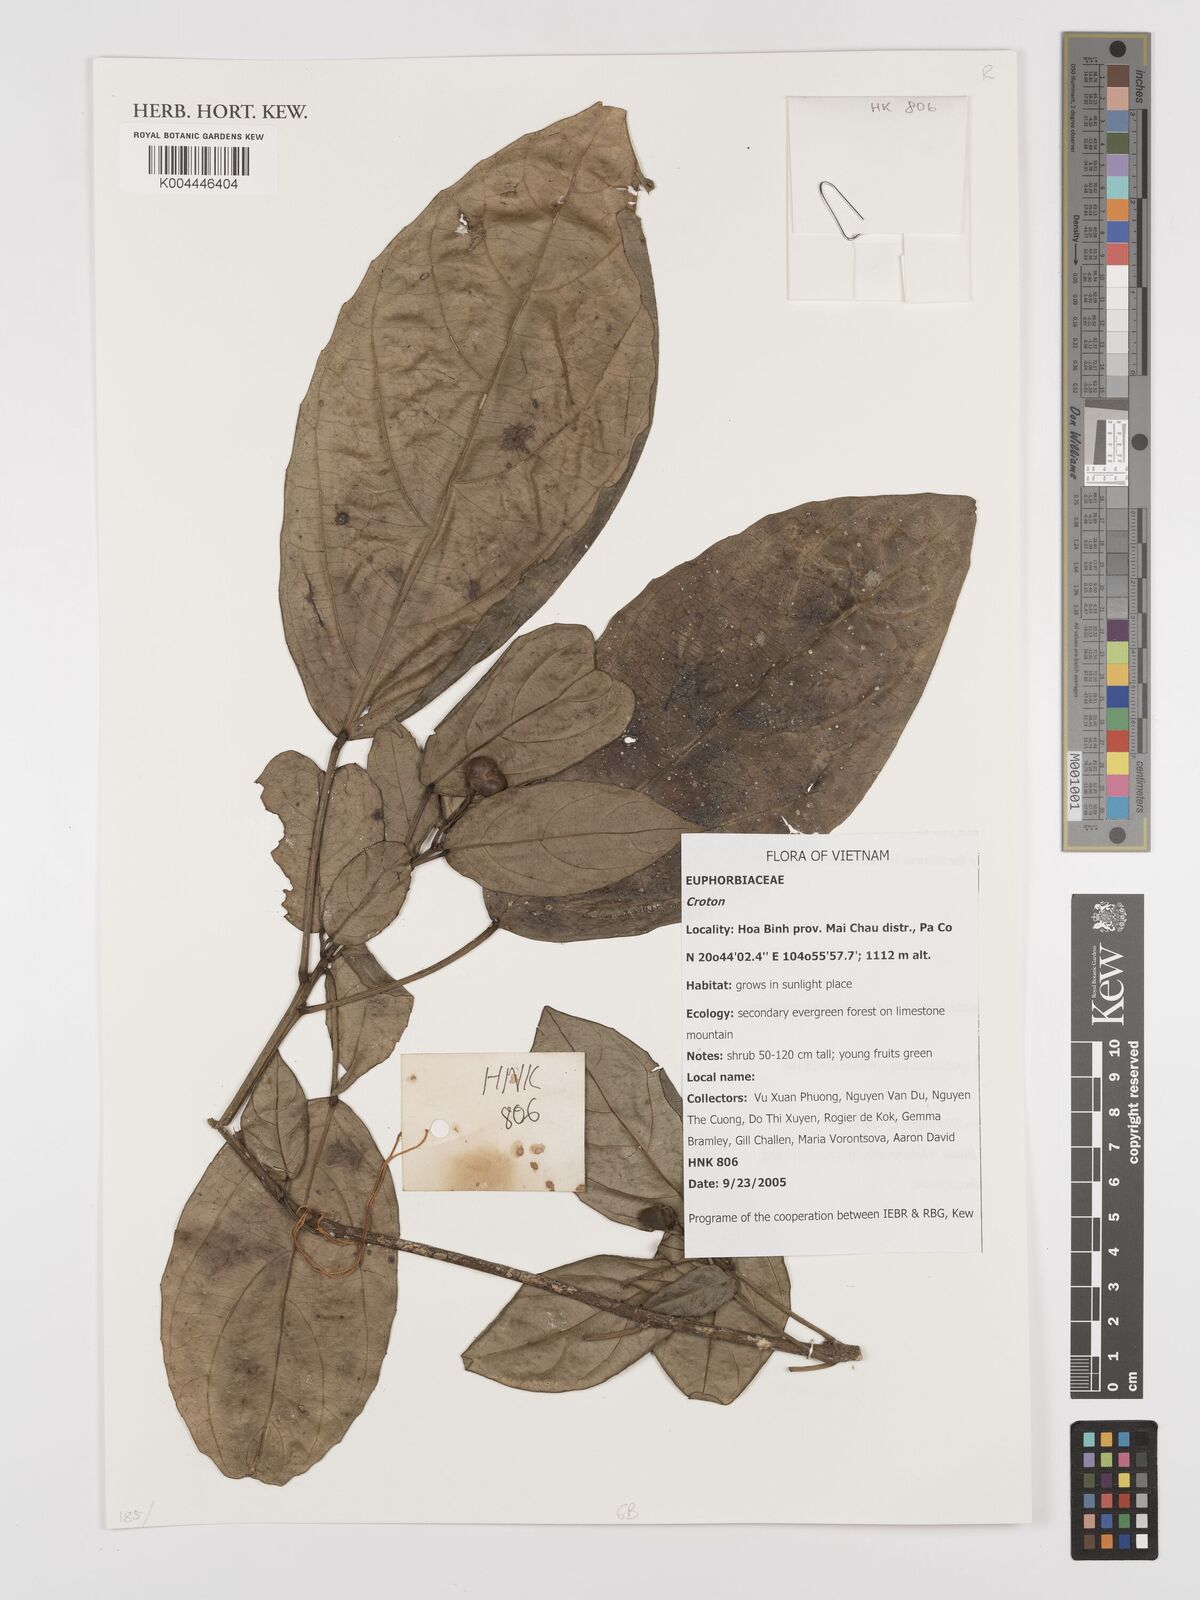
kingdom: Plantae
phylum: Tracheophyta
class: Magnoliopsida
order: Malpighiales
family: Euphorbiaceae
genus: Croton
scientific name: Croton
